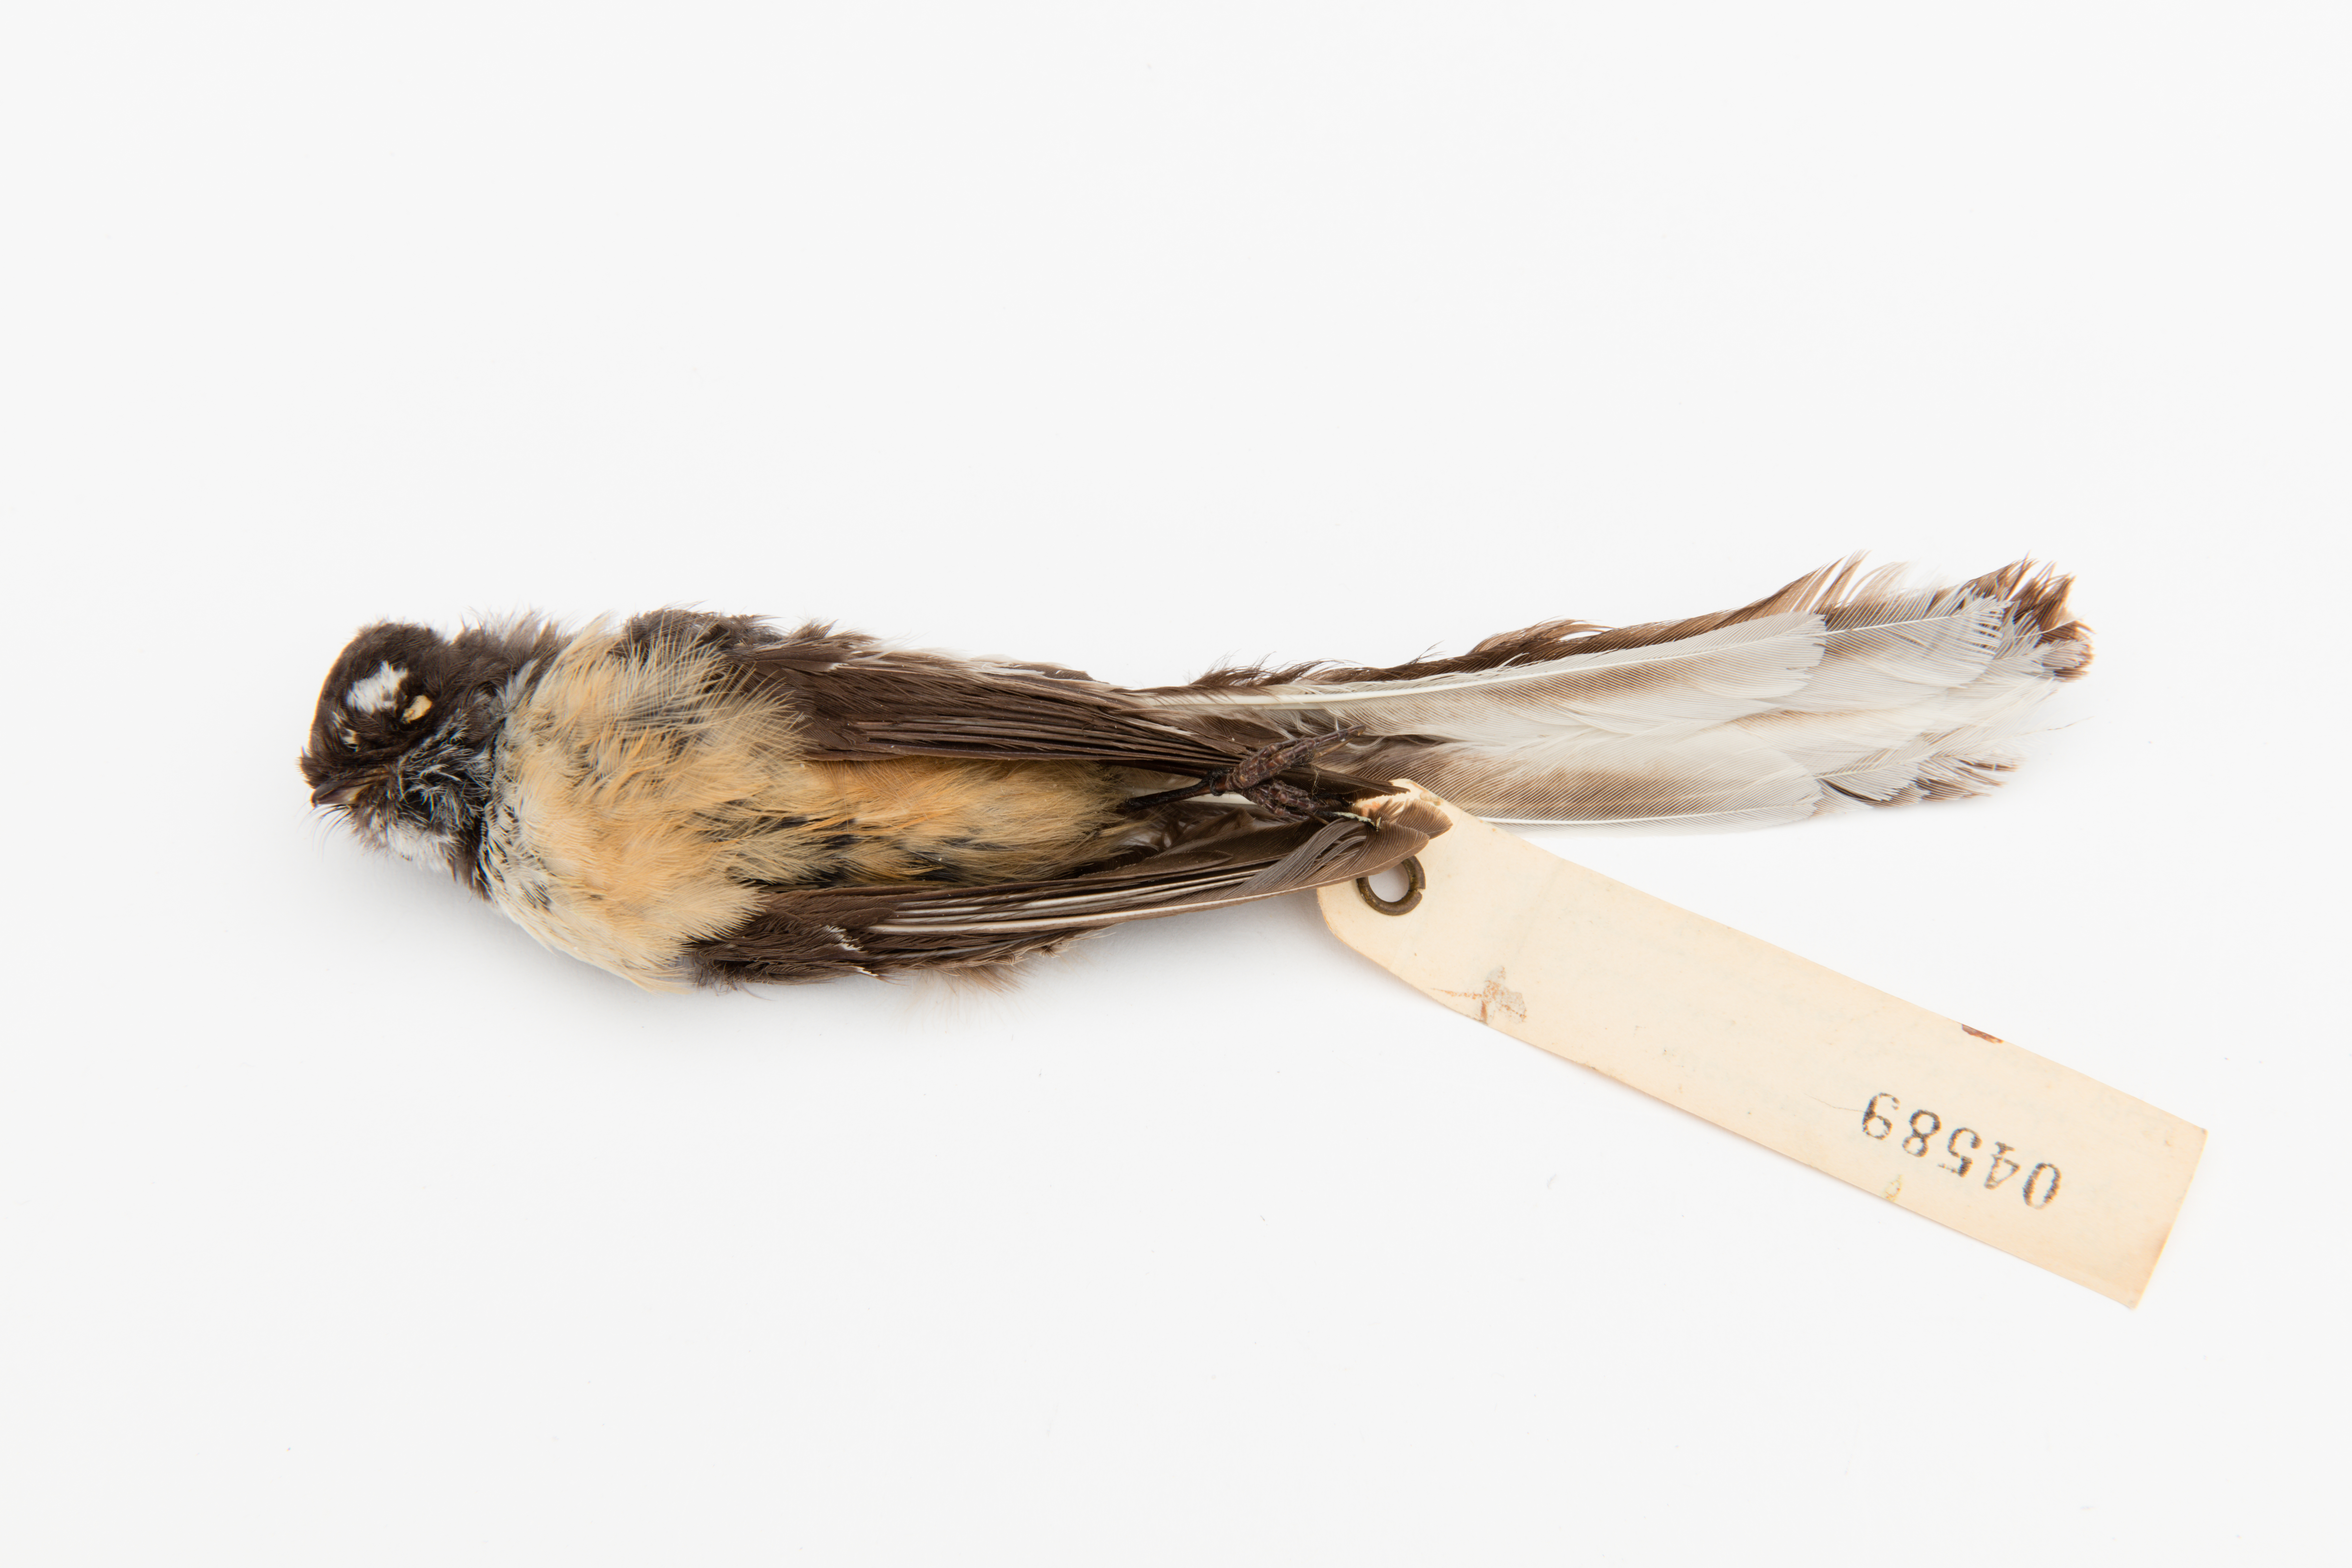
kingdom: Animalia
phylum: Chordata
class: Aves
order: Passeriformes
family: Rhipiduridae
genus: Rhipidura
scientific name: Rhipidura fuliginosa
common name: New zealand fantail
